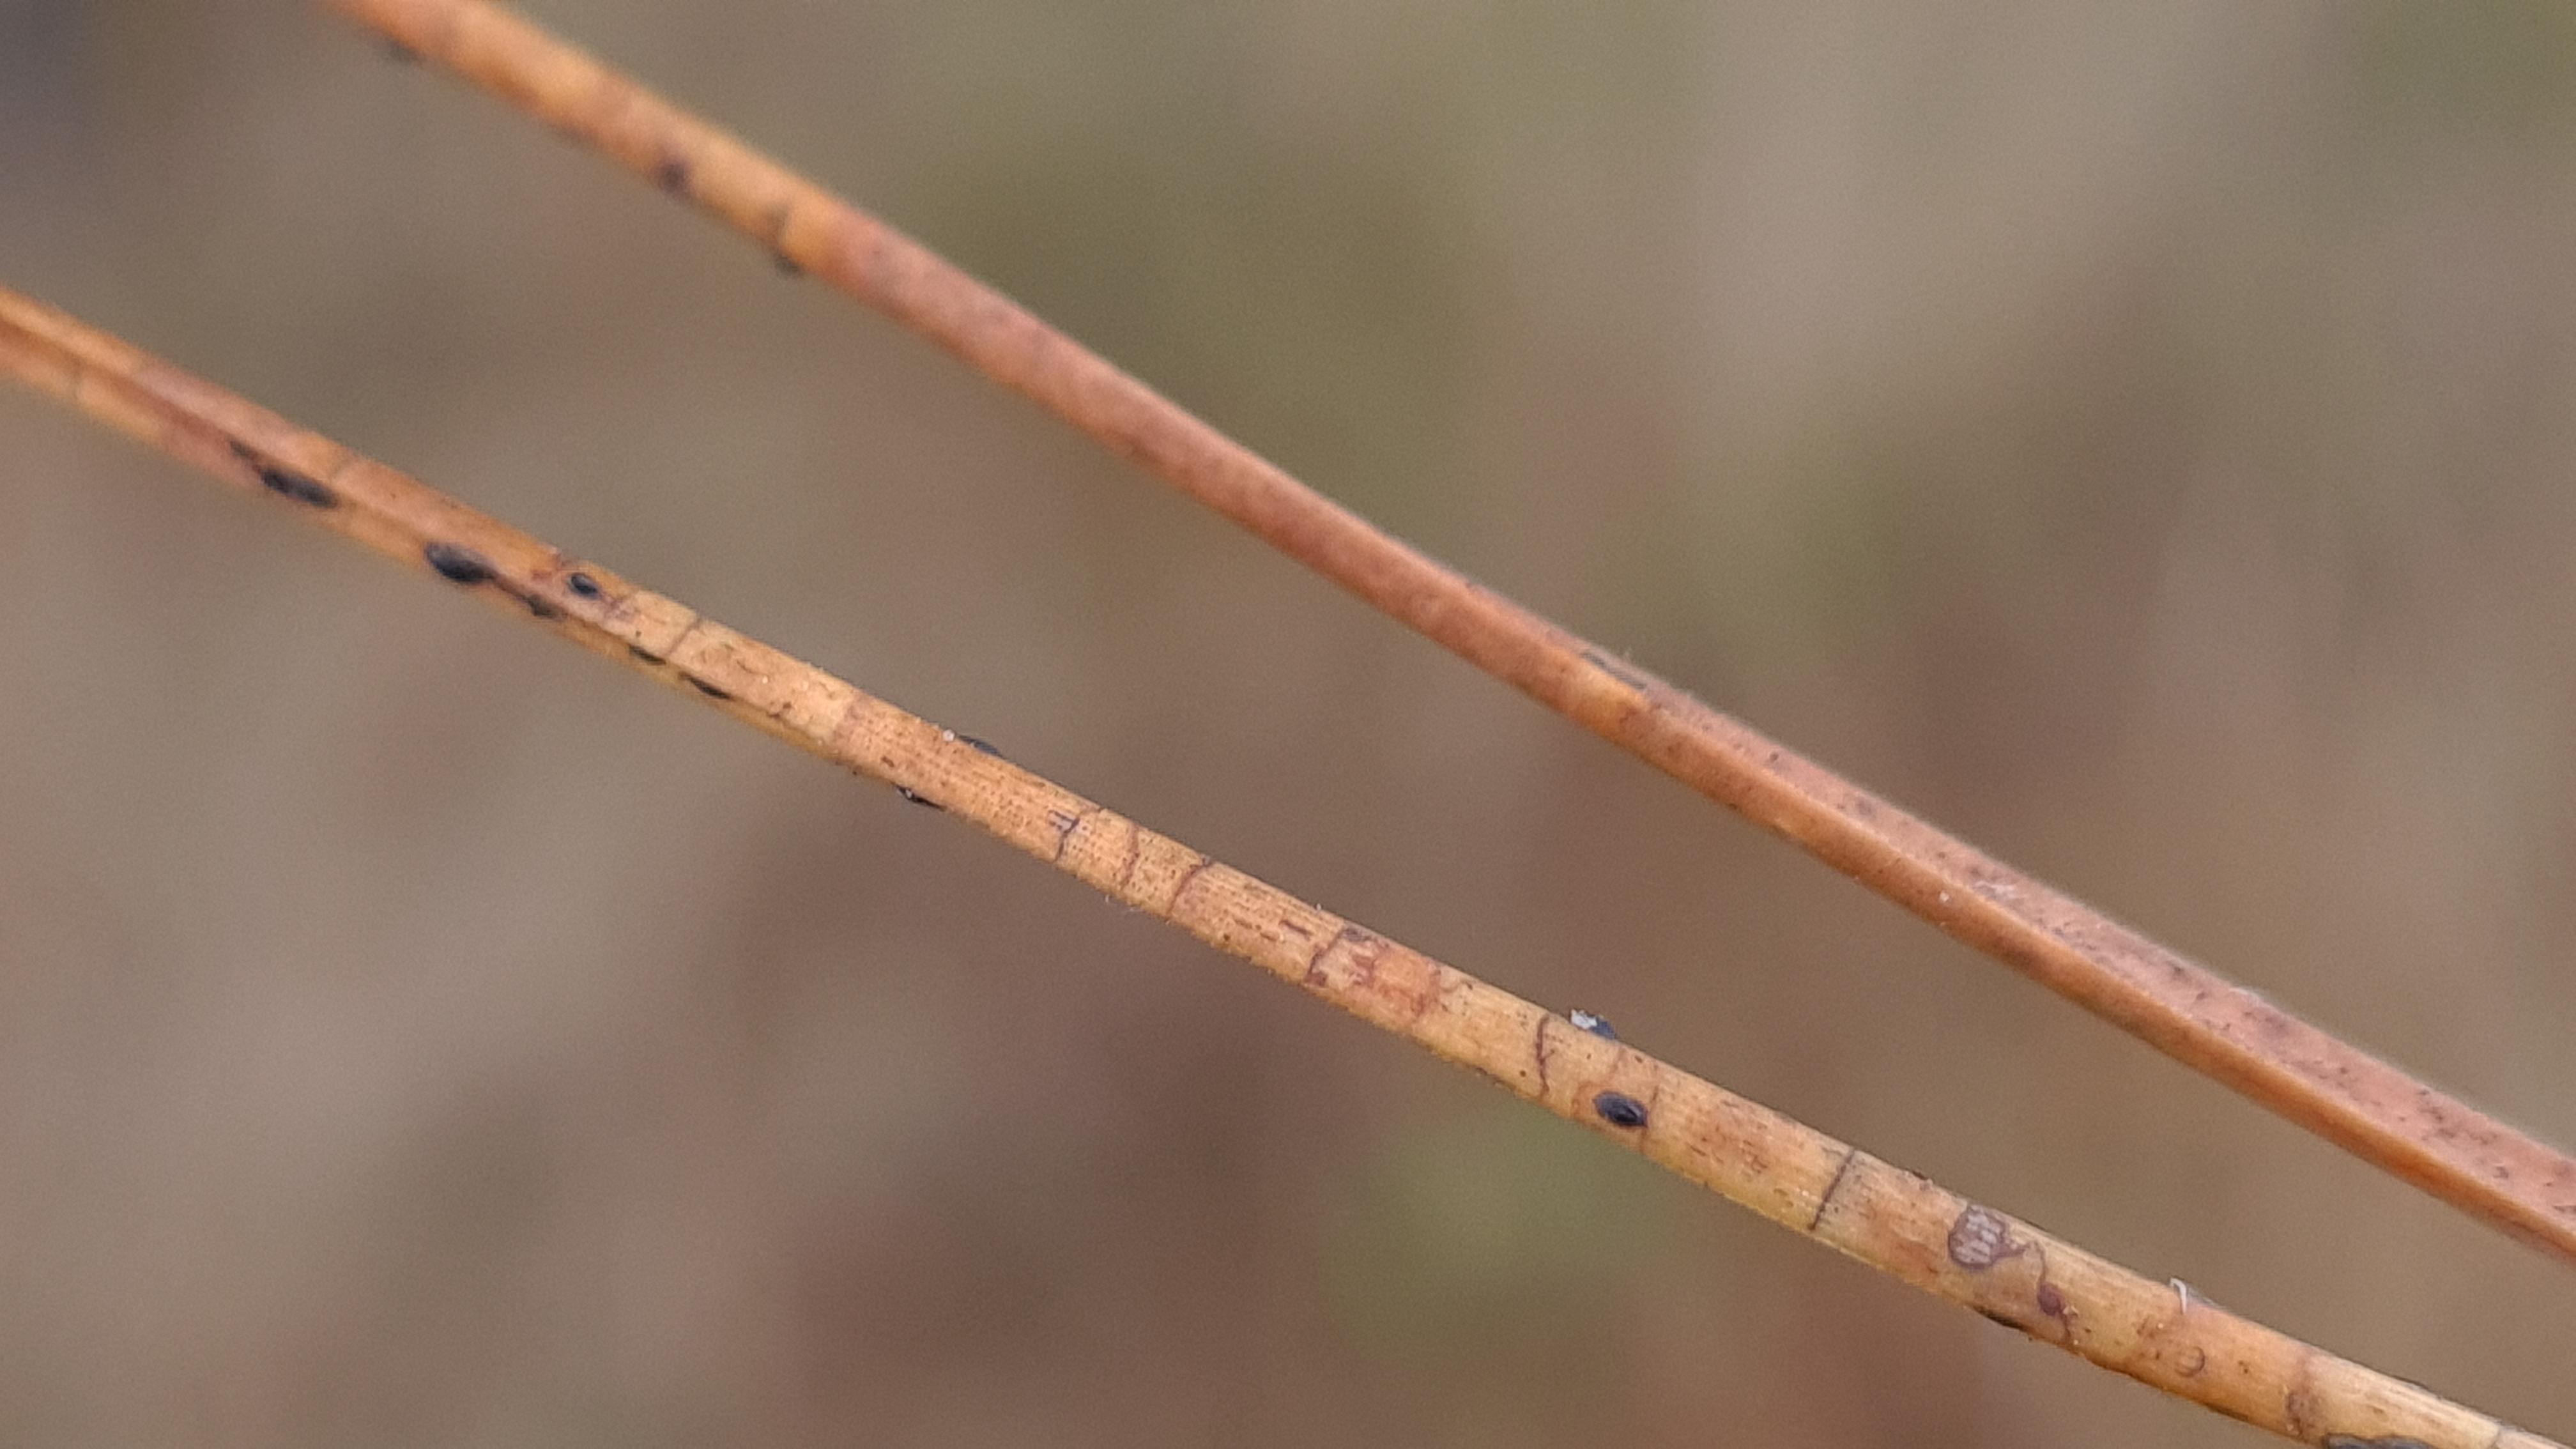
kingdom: Fungi
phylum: Ascomycota
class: Leotiomycetes
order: Rhytismatales
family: Rhytismataceae
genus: Lophodermium
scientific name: Lophodermium pinastri
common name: fyrre-fureplet
